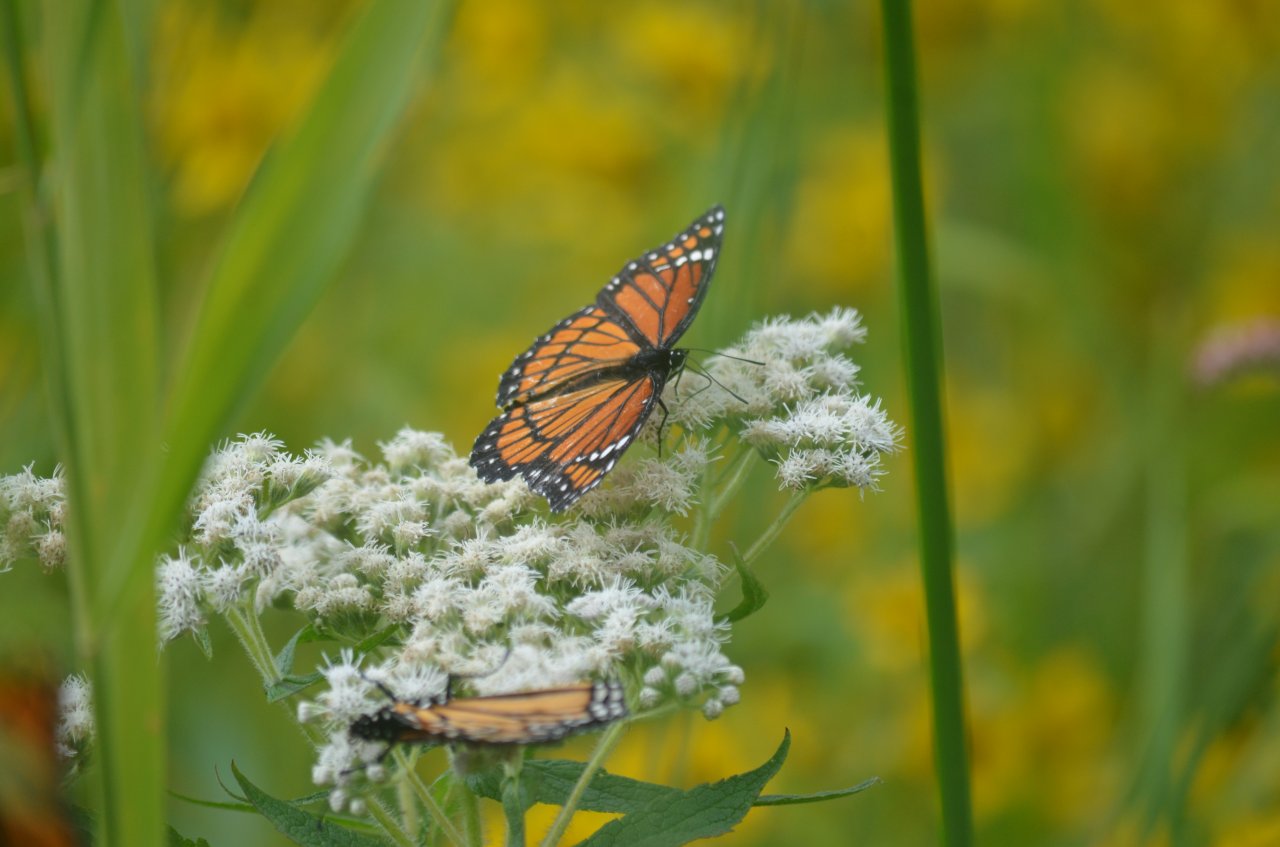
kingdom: Animalia
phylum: Arthropoda
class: Insecta
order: Lepidoptera
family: Nymphalidae
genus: Limenitis
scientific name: Limenitis archippus
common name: Viceroy
